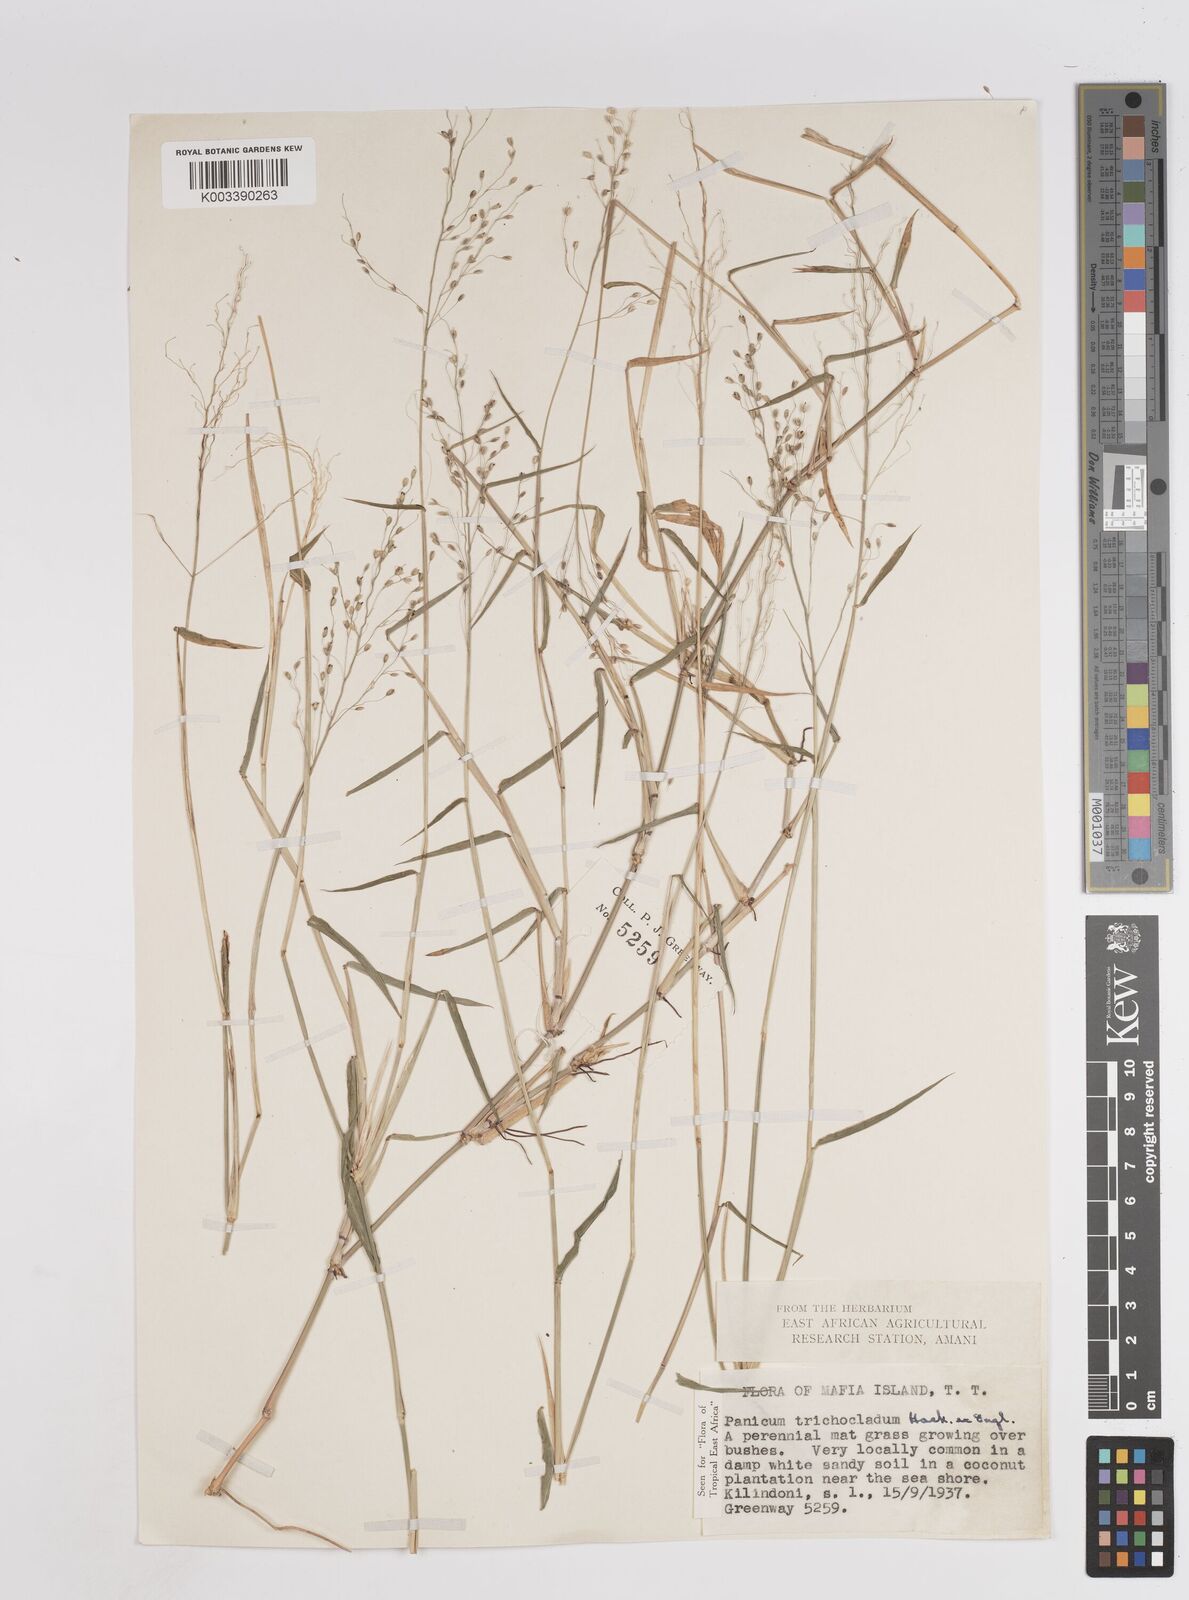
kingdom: Plantae
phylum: Tracheophyta
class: Liliopsida
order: Poales
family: Poaceae
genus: Panicum
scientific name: Panicum trichocladum
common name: Donkey grass
